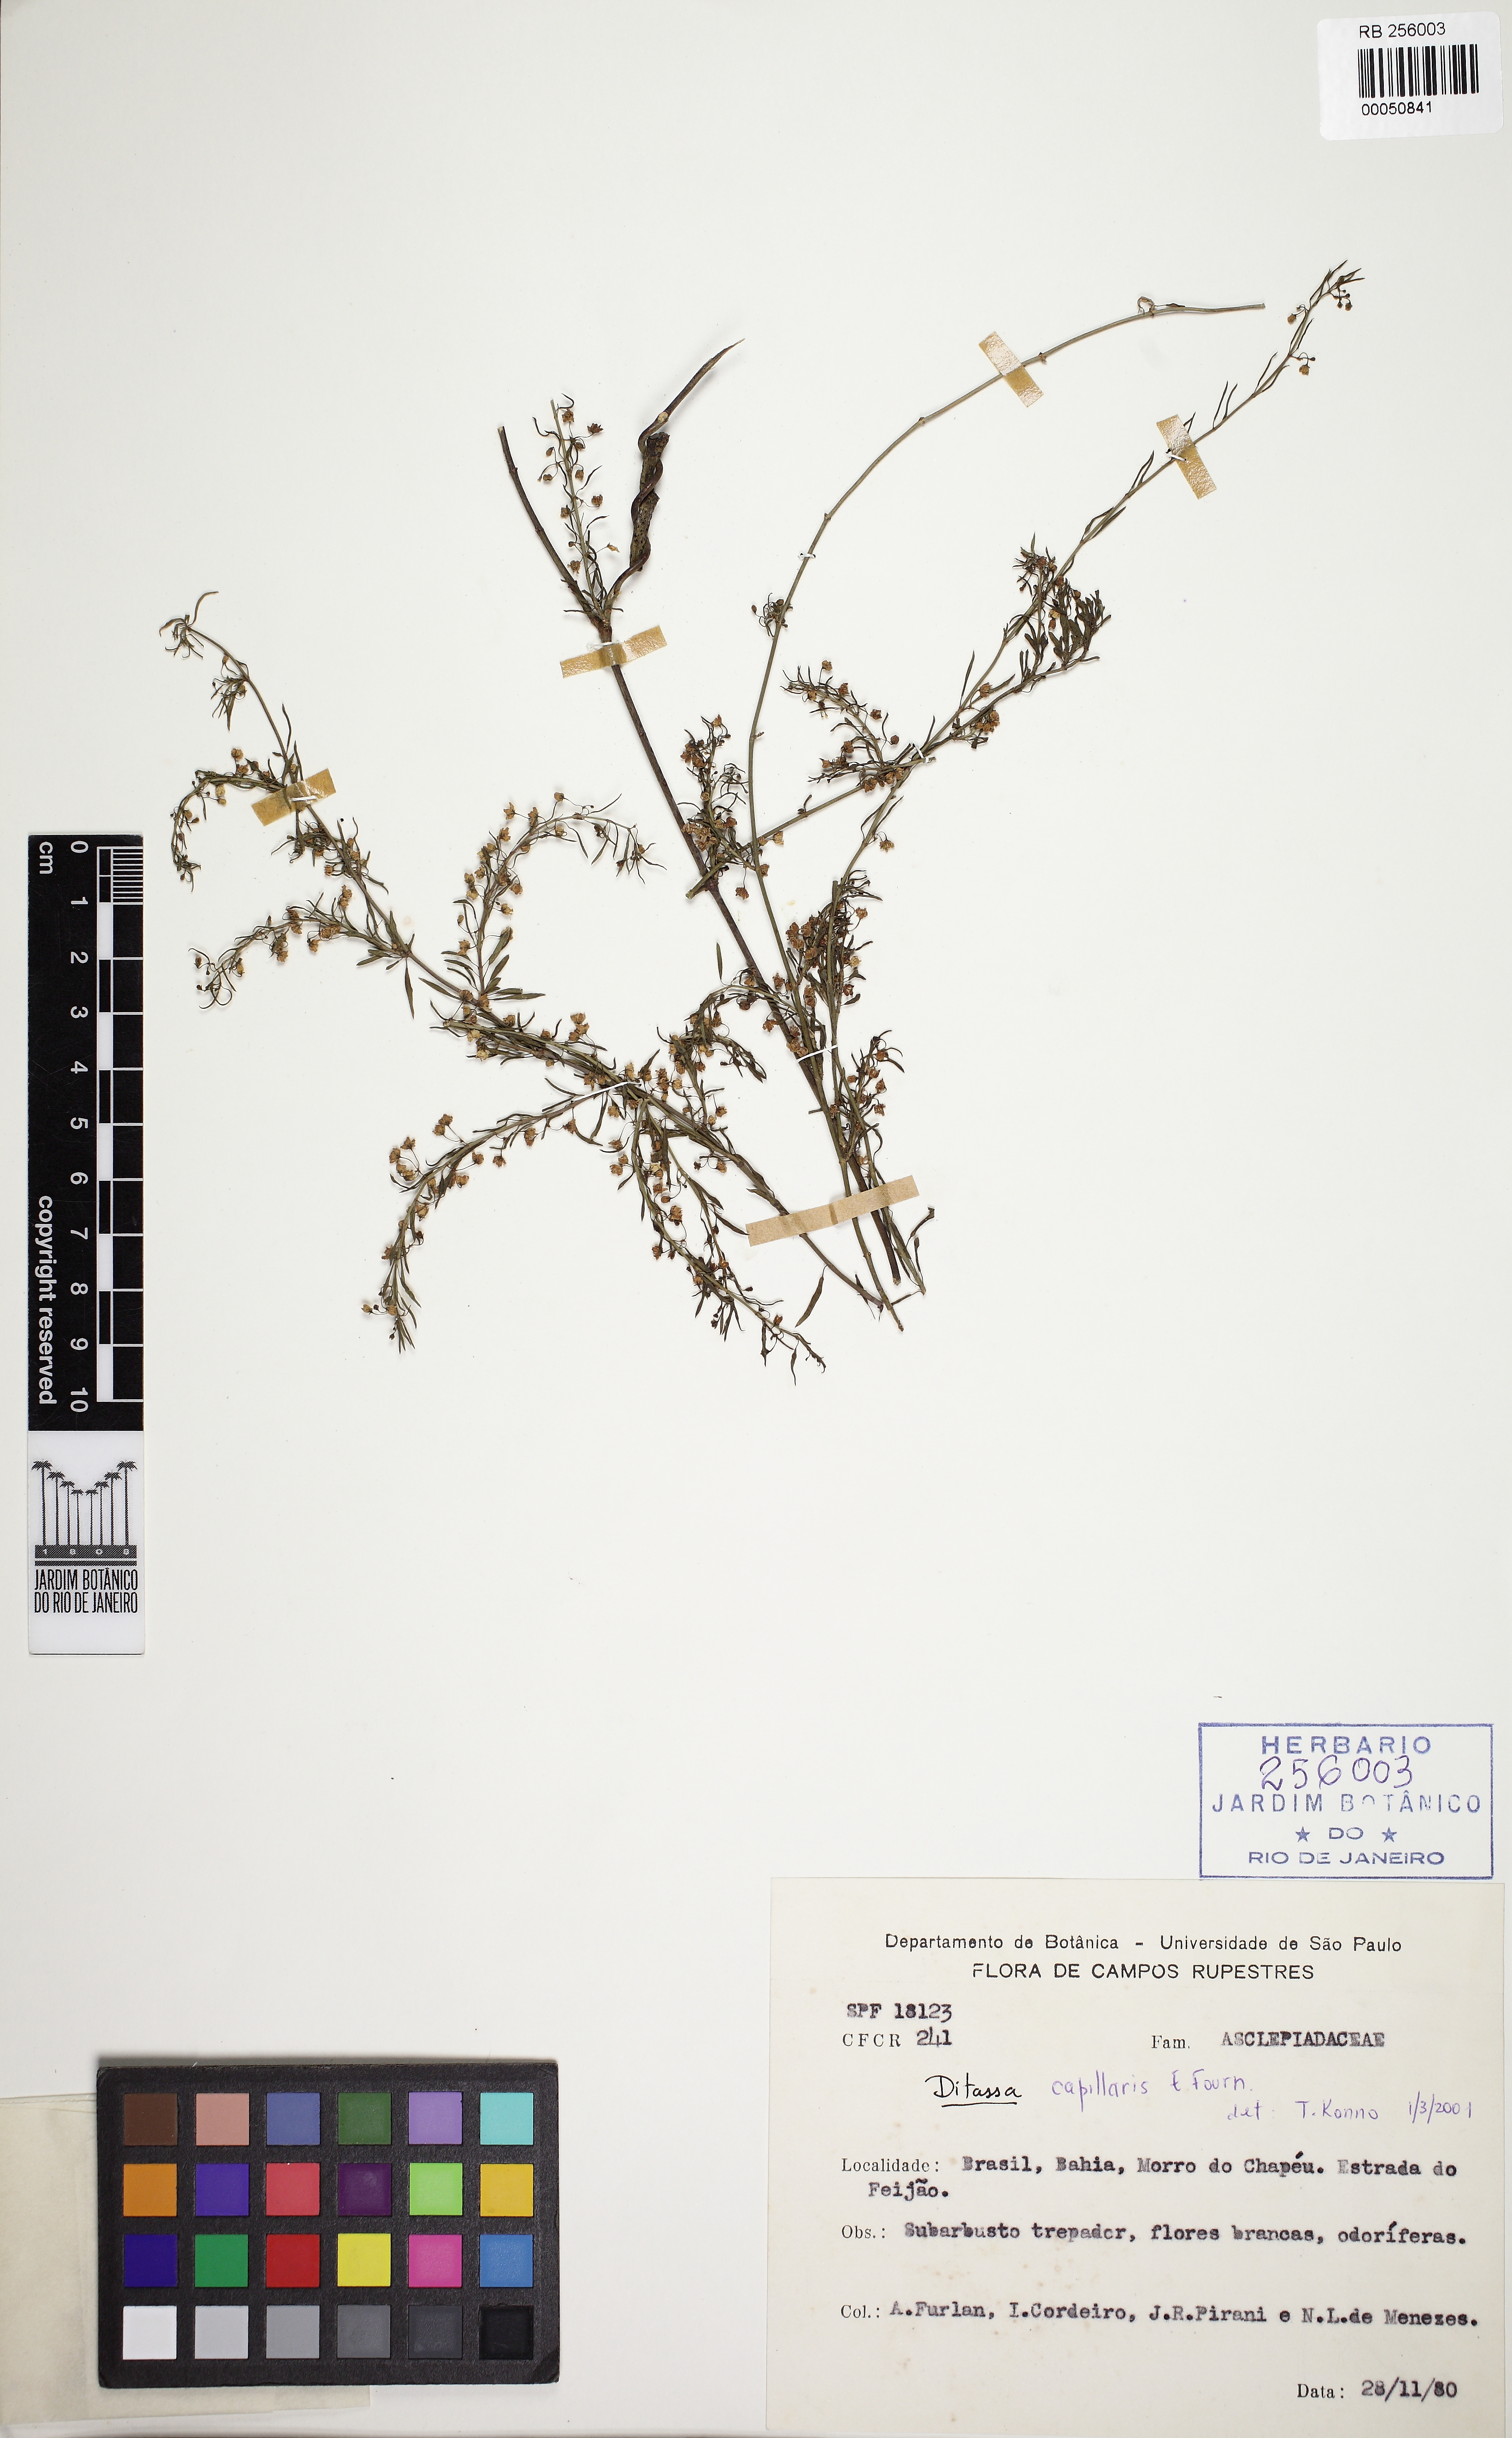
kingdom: Plantae
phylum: Tracheophyta
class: Magnoliopsida
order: Gentianales
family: Apocynaceae
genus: Ditassa
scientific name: Ditassa capillaris
